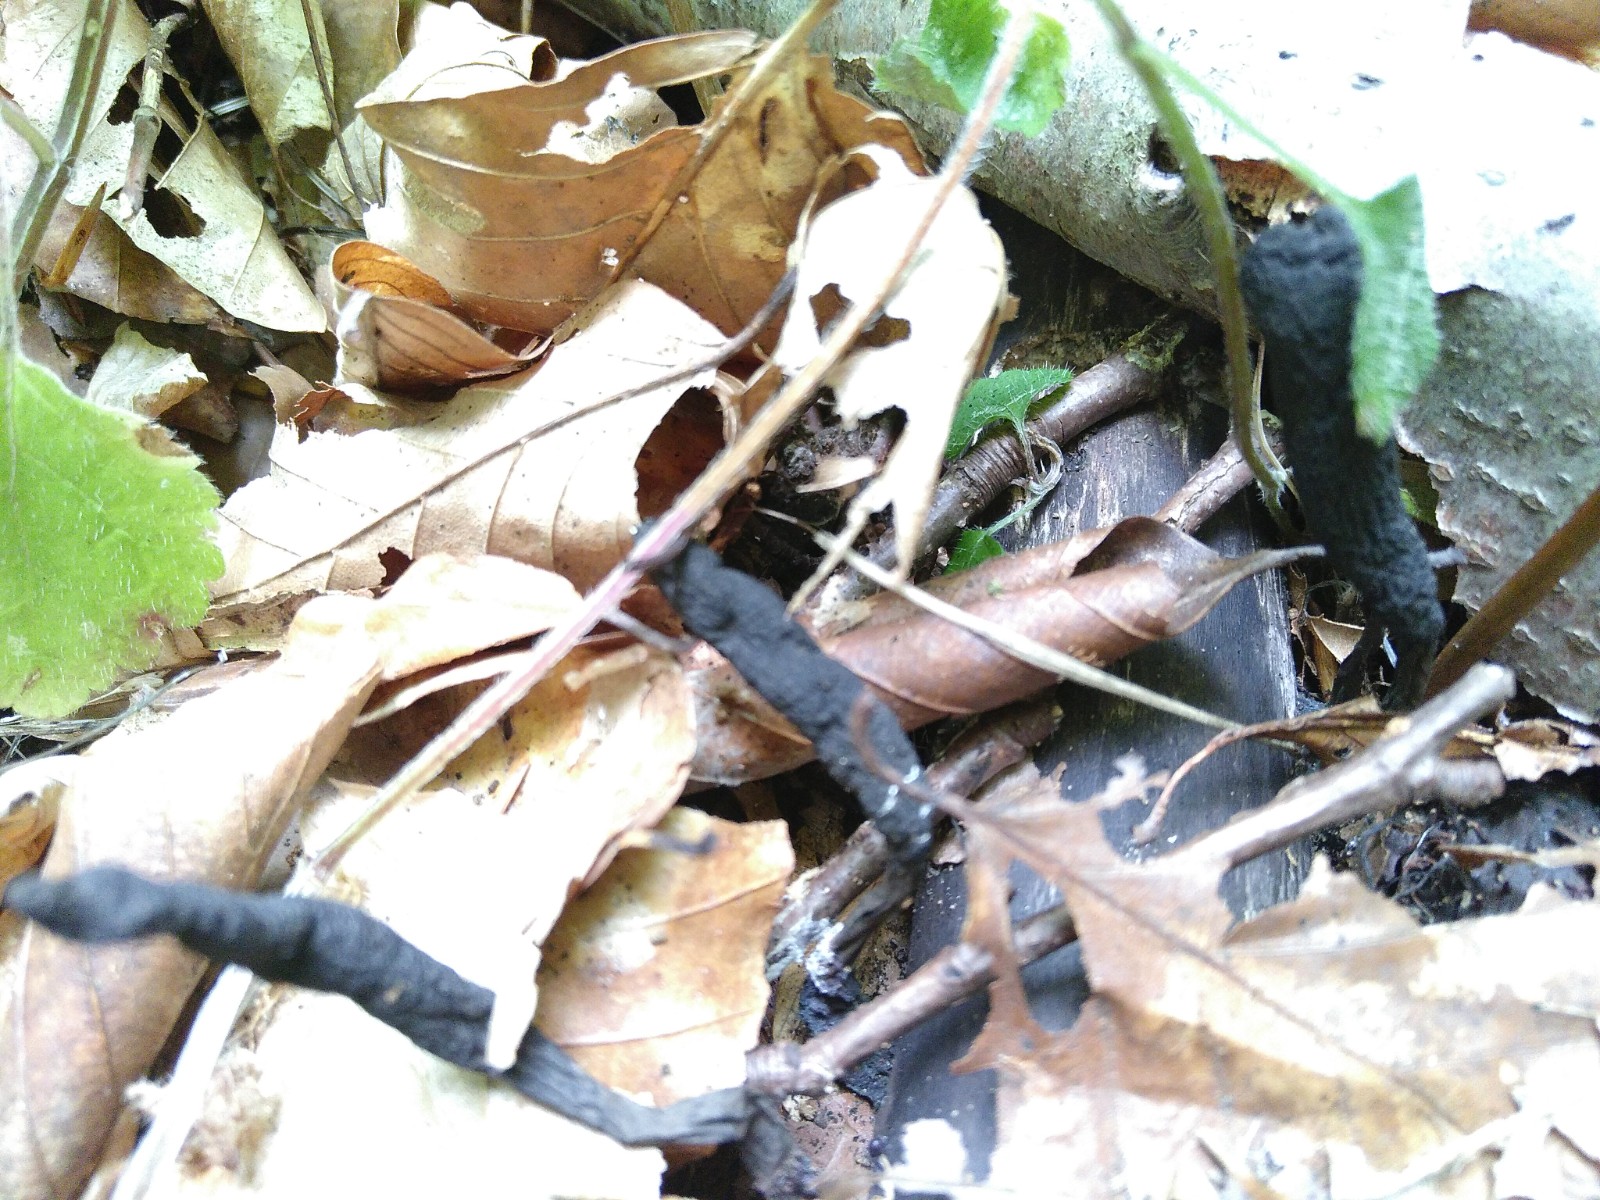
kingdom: Fungi
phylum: Ascomycota
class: Sordariomycetes
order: Xylariales
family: Xylariaceae
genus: Xylaria
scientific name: Xylaria longipes
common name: slank stødsvamp
